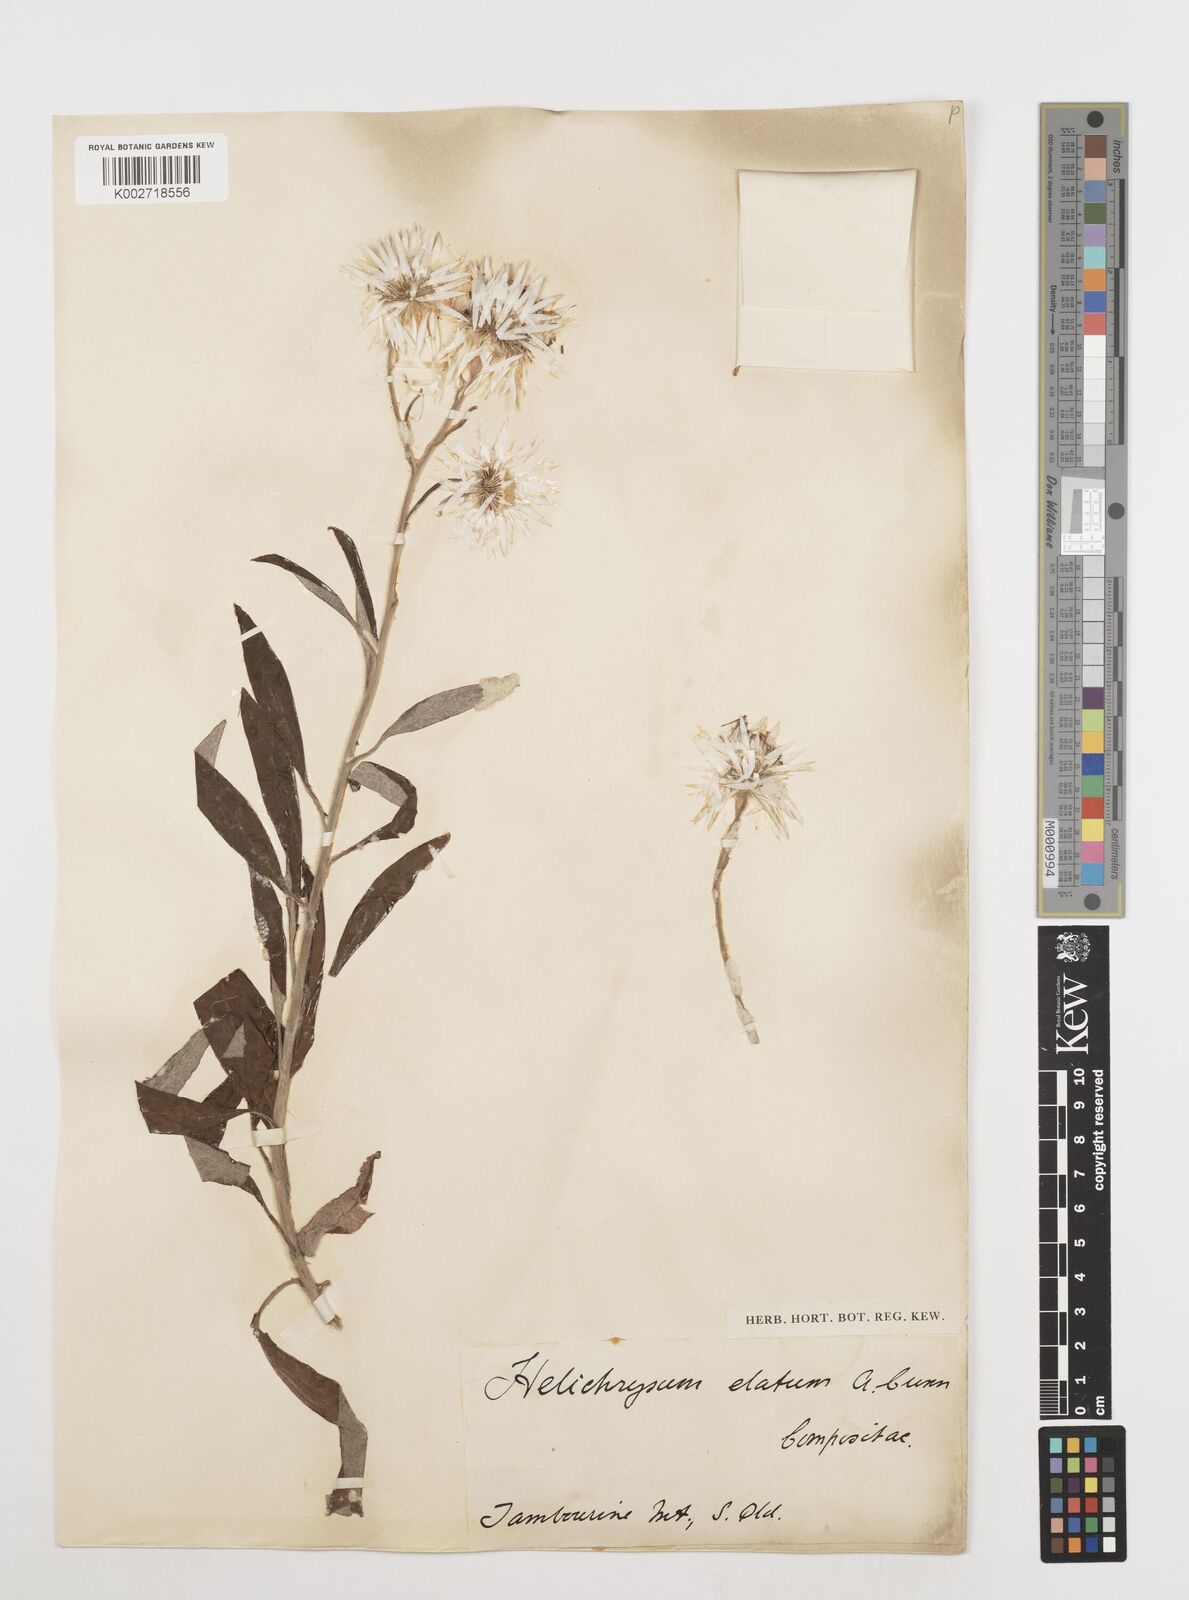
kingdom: Plantae
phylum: Tracheophyta
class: Magnoliopsida
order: Asterales
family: Asteraceae
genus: Leucozoma
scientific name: Leucozoma elatum
